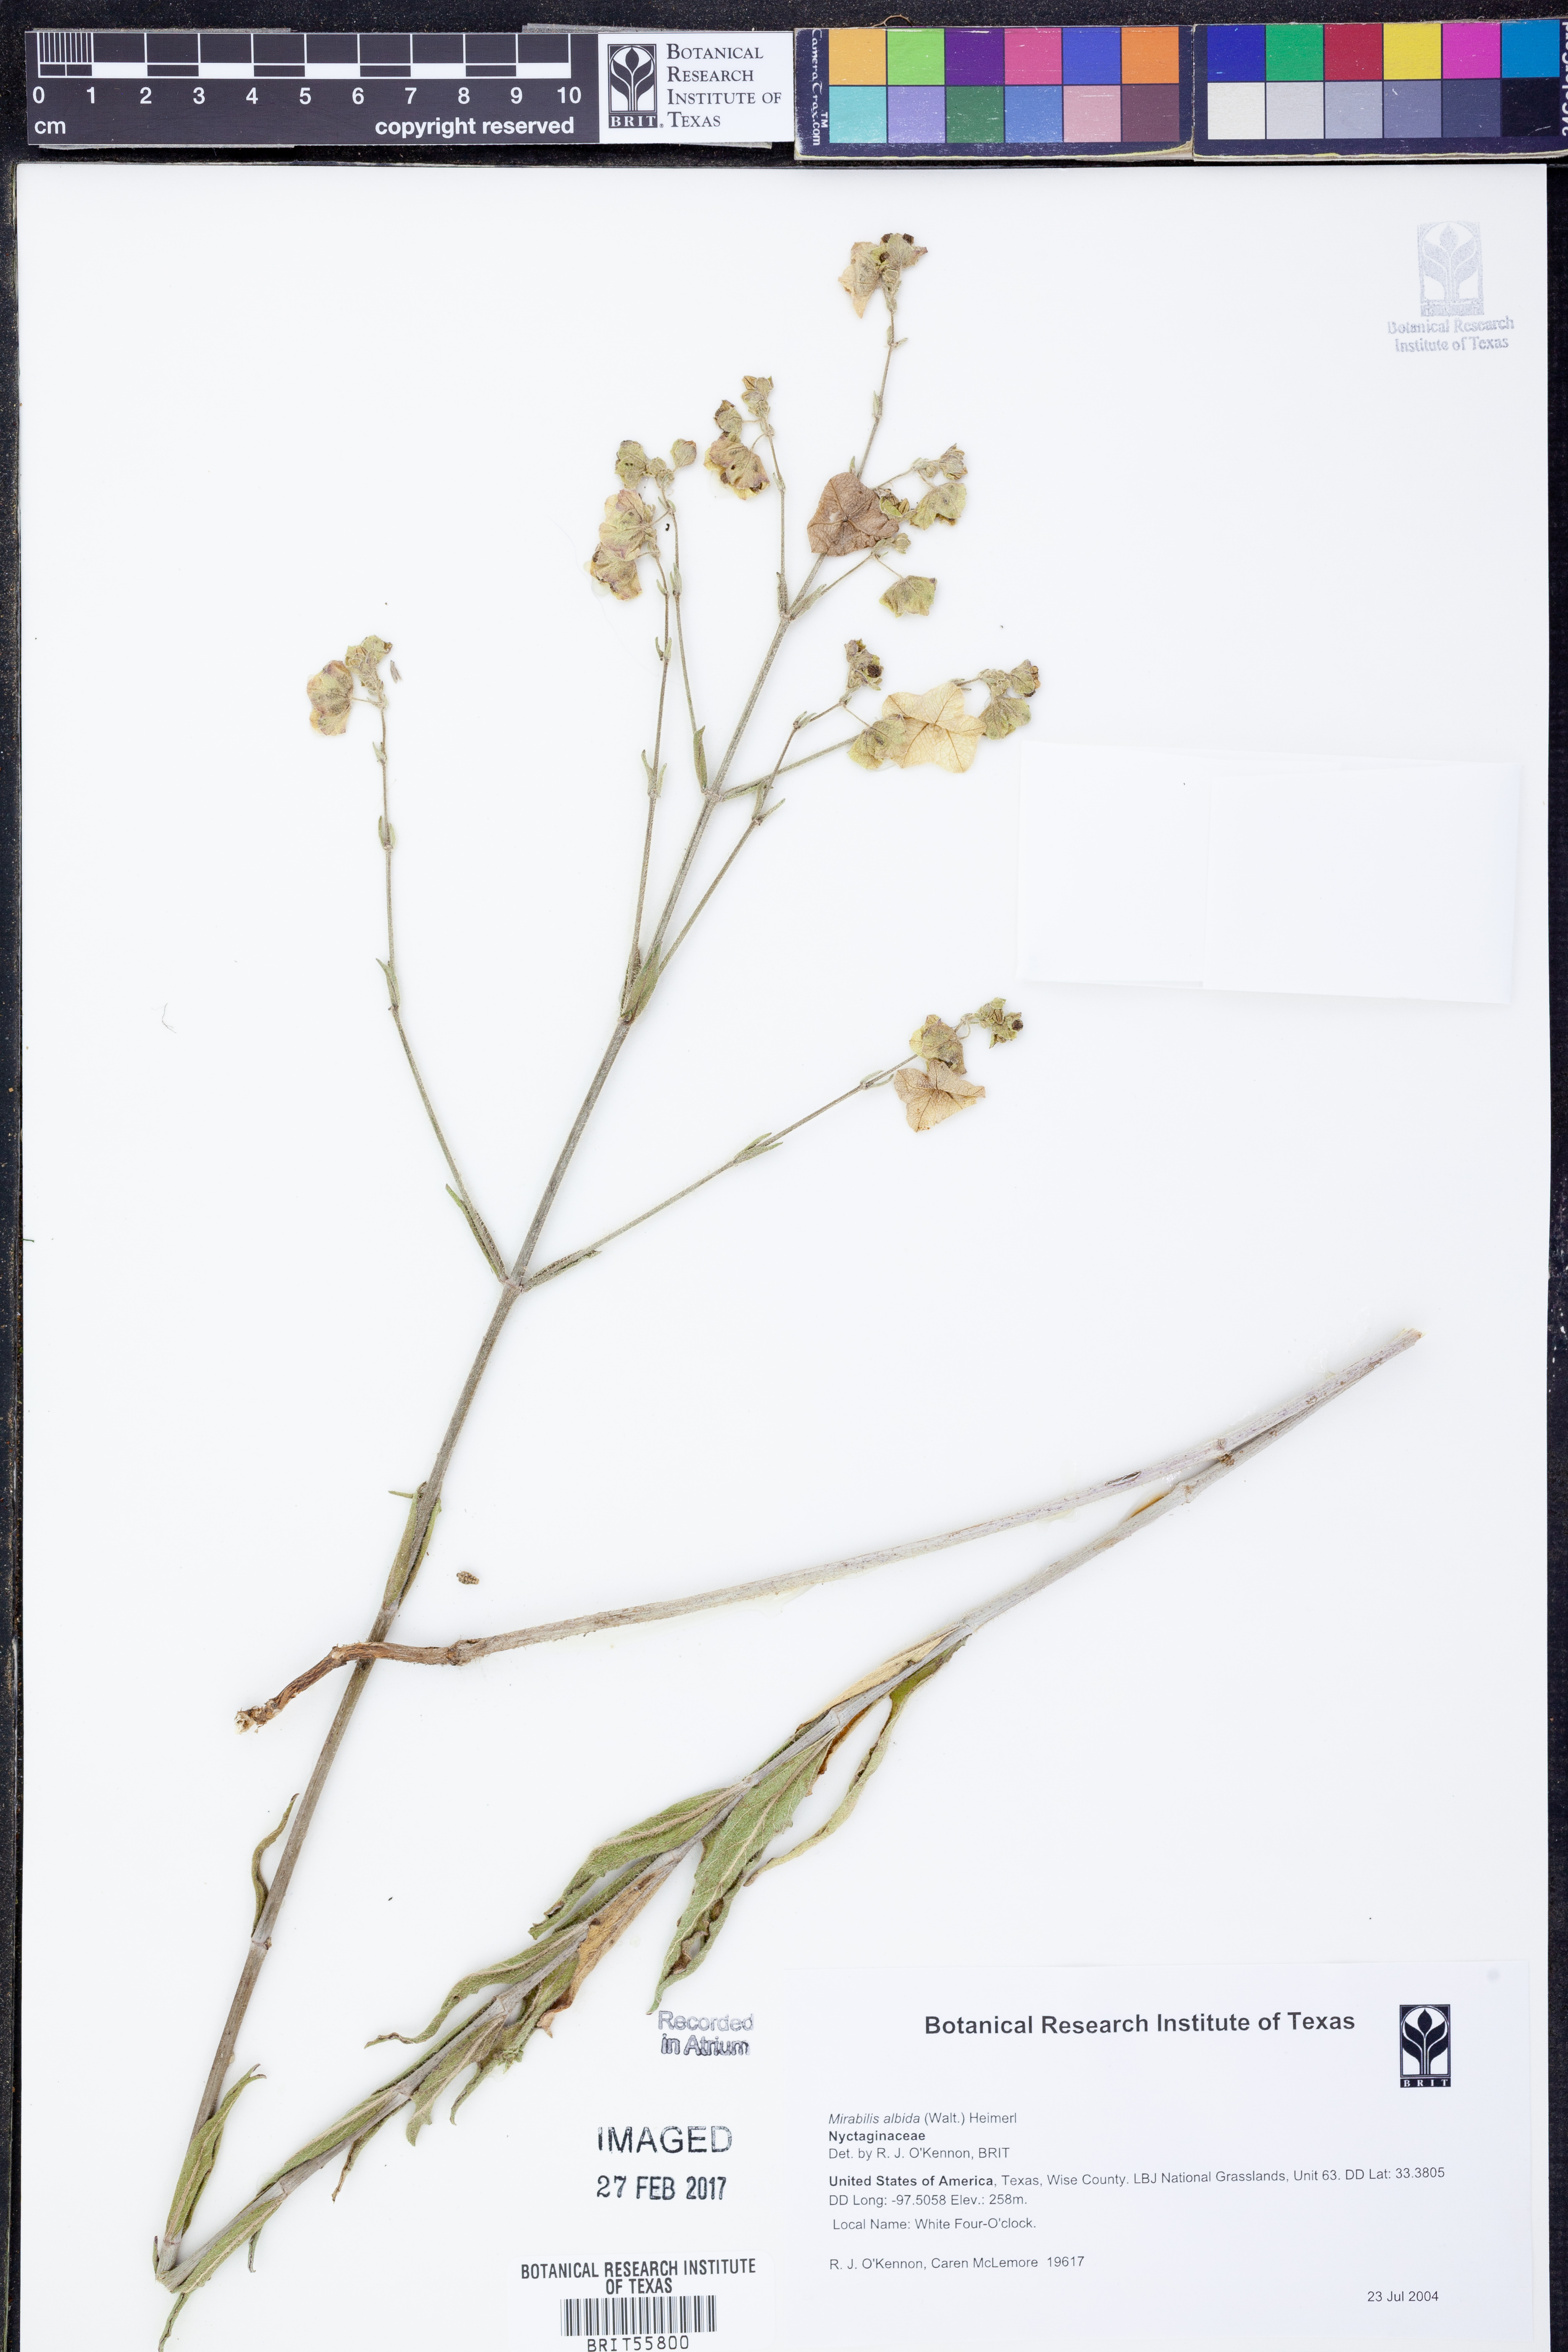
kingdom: Plantae
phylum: Tracheophyta
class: Magnoliopsida
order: Caryophyllales
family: Nyctaginaceae
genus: Mirabilis
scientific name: Mirabilis albida
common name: Hairy four-o'clock
